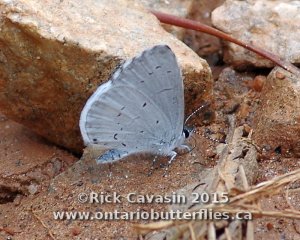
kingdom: Animalia
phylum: Arthropoda
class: Insecta
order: Lepidoptera
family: Lycaenidae
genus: Cyaniris
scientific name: Cyaniris neglecta
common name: Summer Azure
